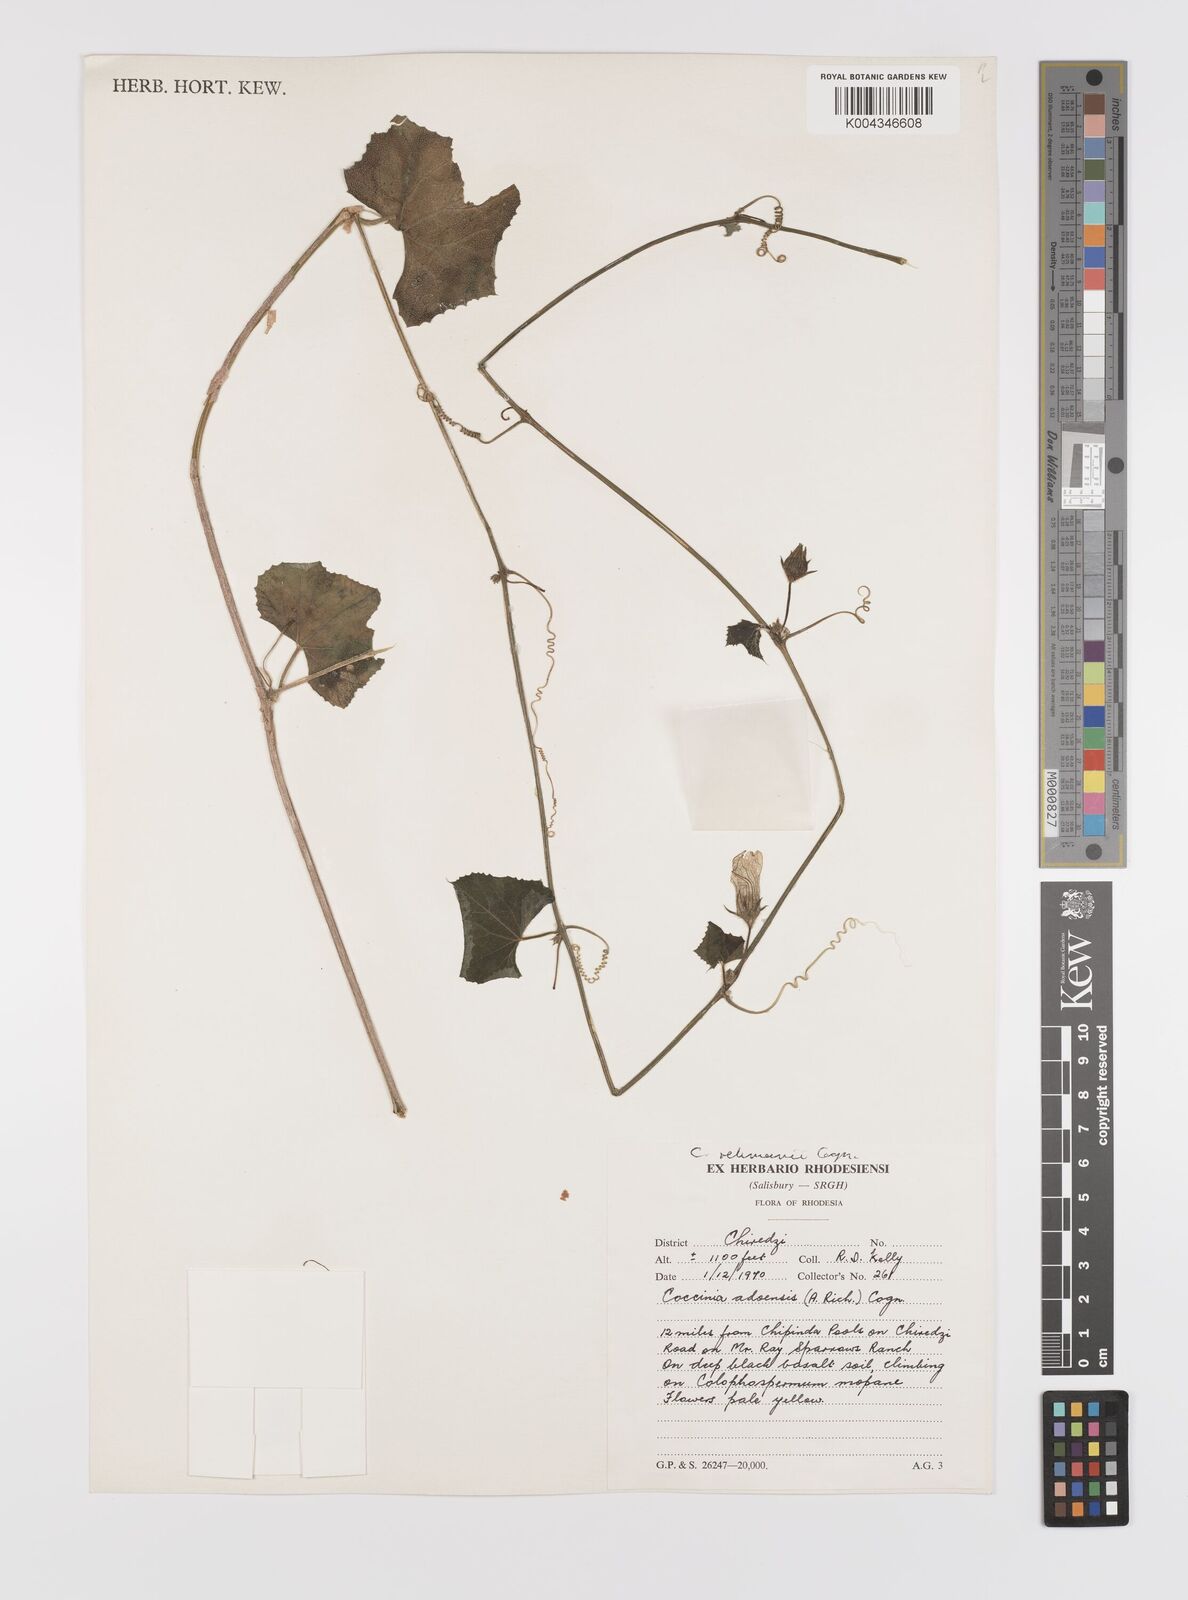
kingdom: Plantae
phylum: Tracheophyta
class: Magnoliopsida
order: Cucurbitales
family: Cucurbitaceae
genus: Coccinia
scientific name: Coccinia rehmannii
